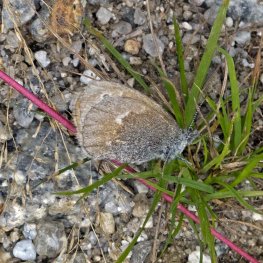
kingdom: Animalia
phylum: Arthropoda
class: Insecta
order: Lepidoptera
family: Nymphalidae
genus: Coenonympha
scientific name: Coenonympha tullia
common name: Large Heath
